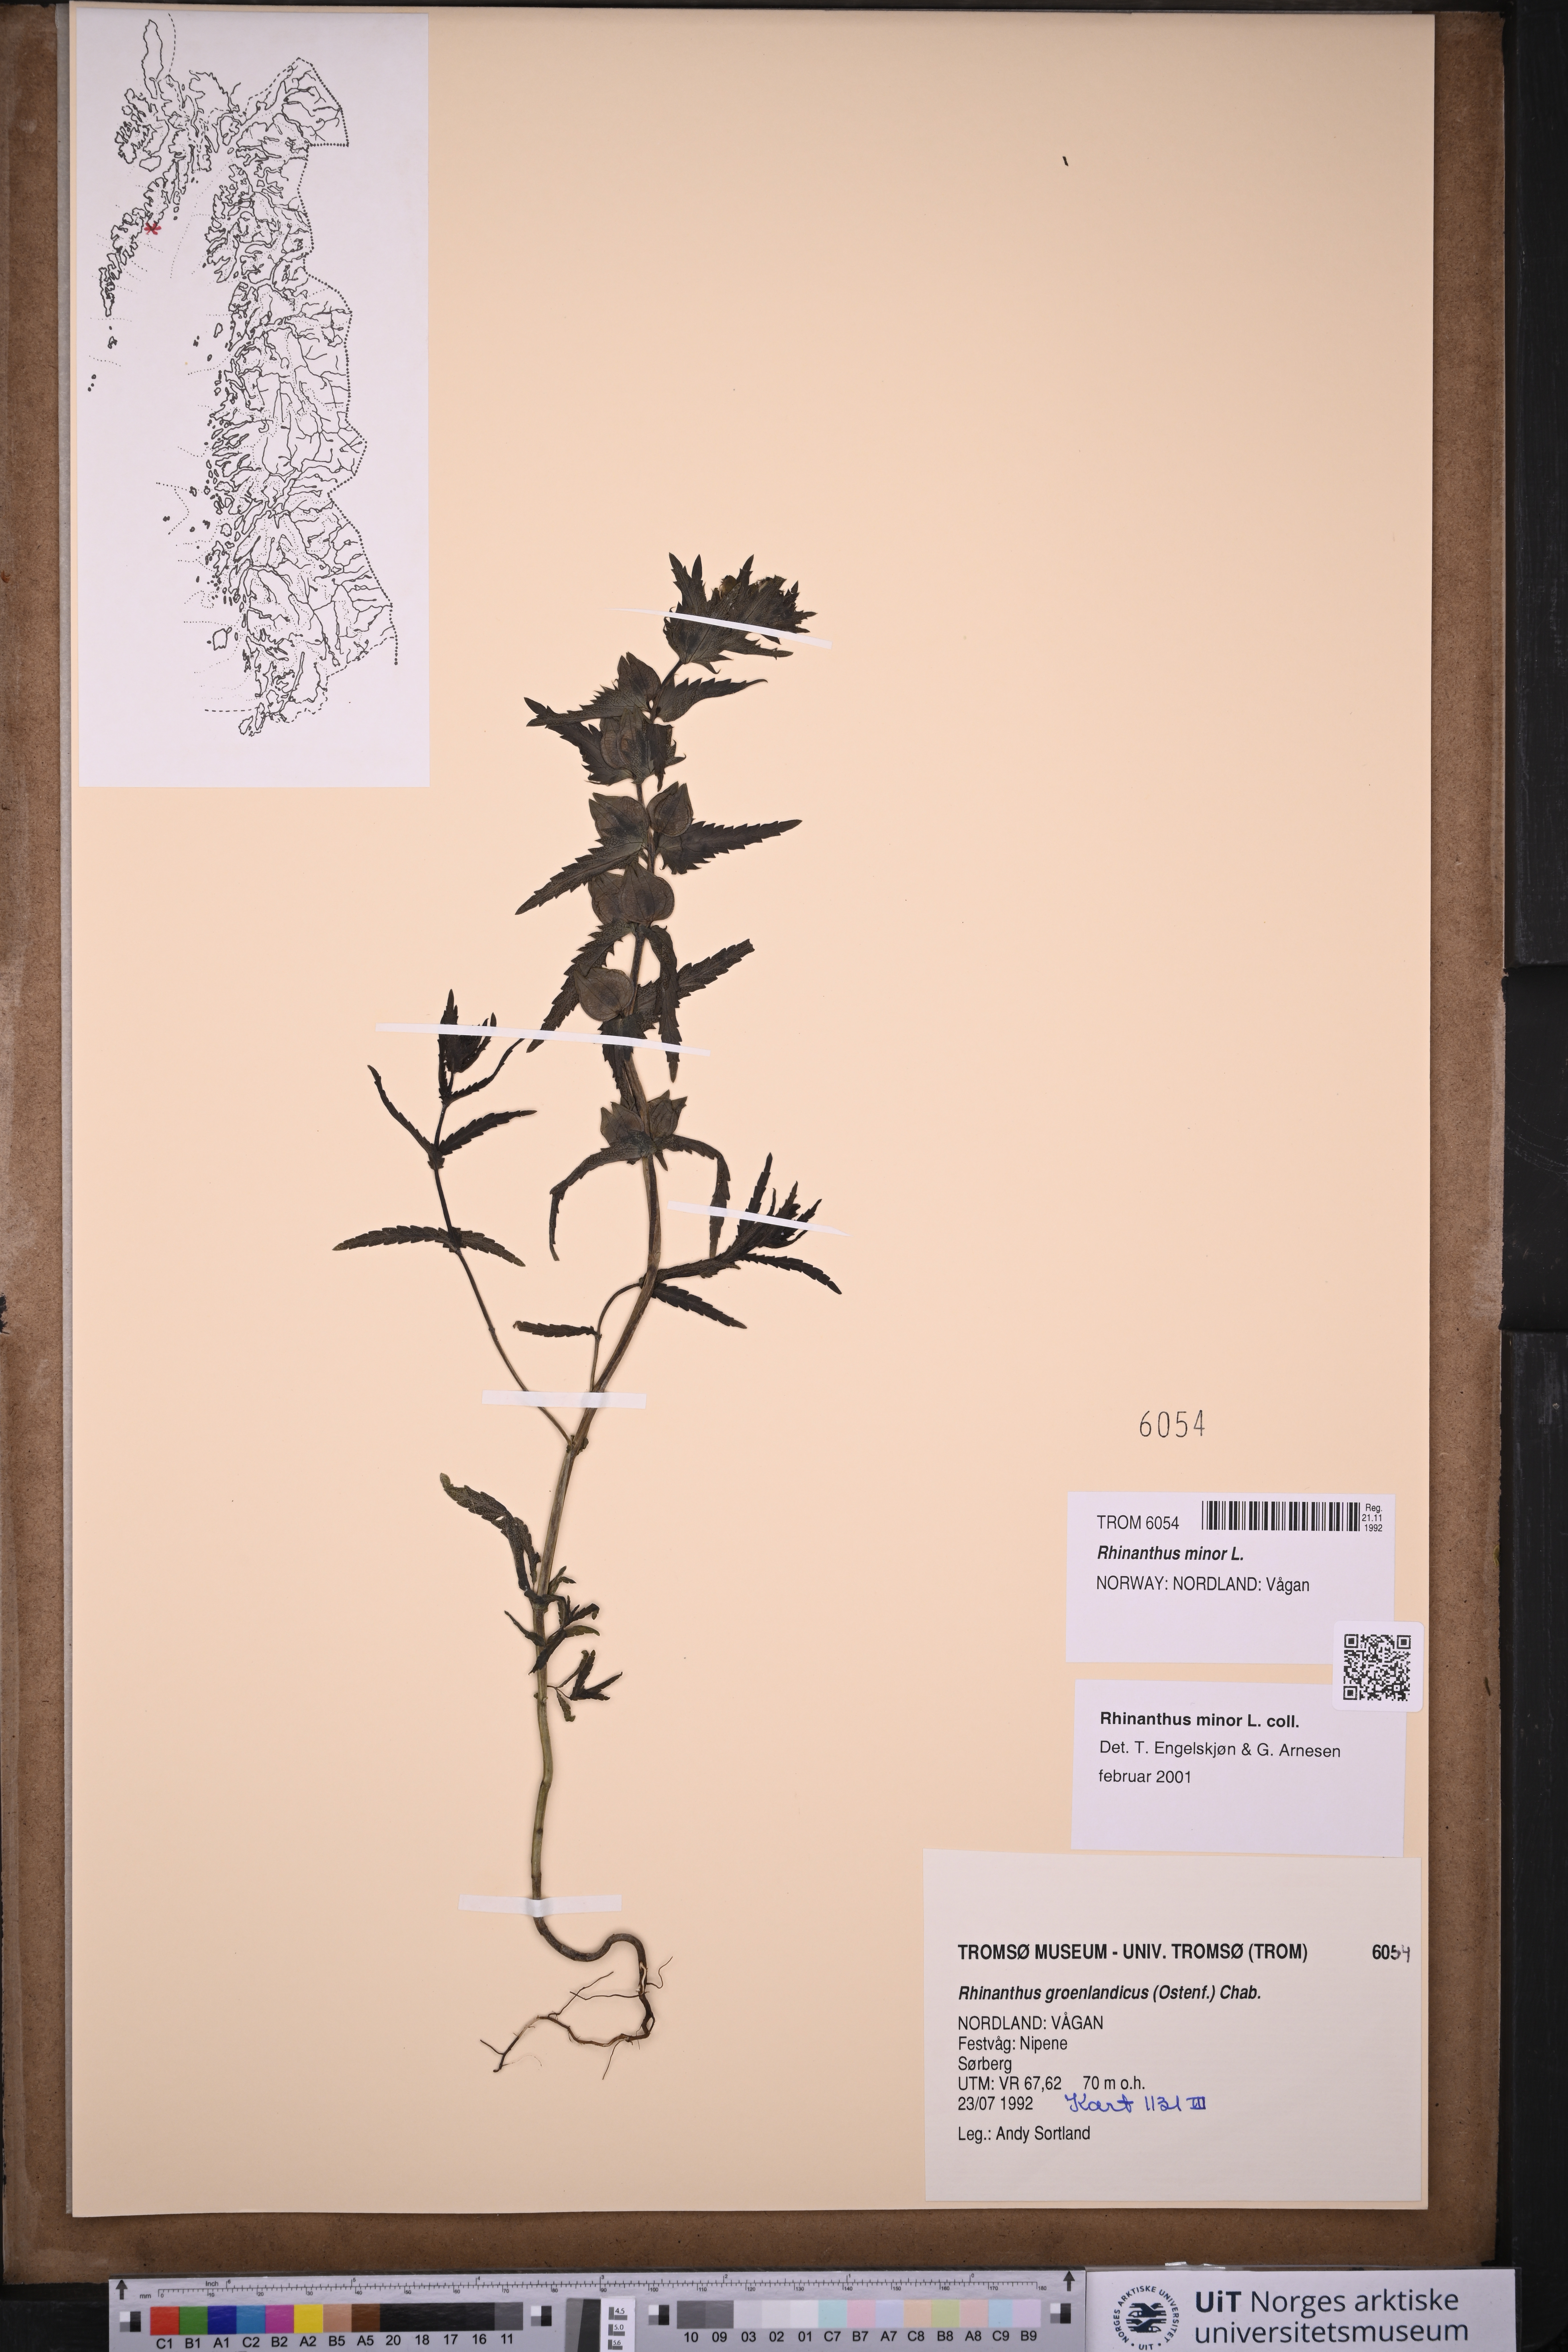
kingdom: Plantae
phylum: Tracheophyta
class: Magnoliopsida
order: Lamiales
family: Orobanchaceae
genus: Rhinanthus
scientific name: Rhinanthus minor
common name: Yellow-rattle
